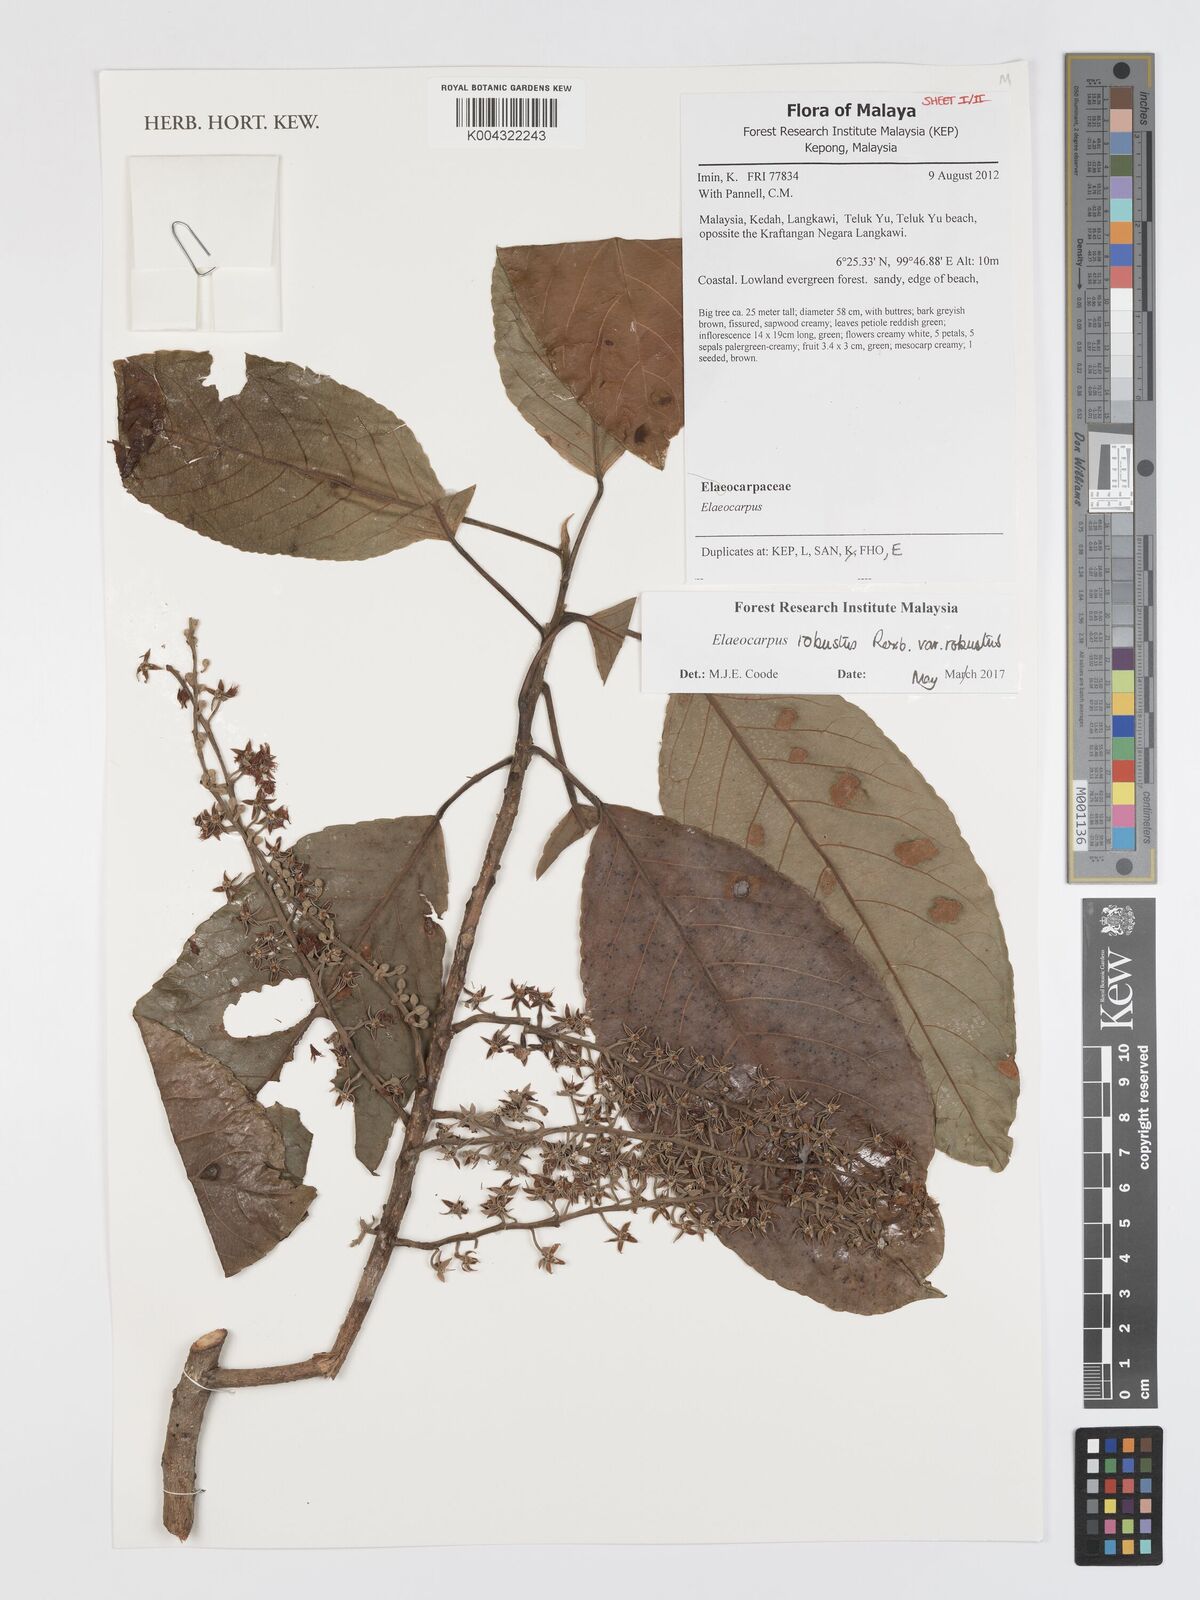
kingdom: Plantae
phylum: Tracheophyta
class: Magnoliopsida
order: Oxalidales
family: Elaeocarpaceae
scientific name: Elaeocarpaceae
